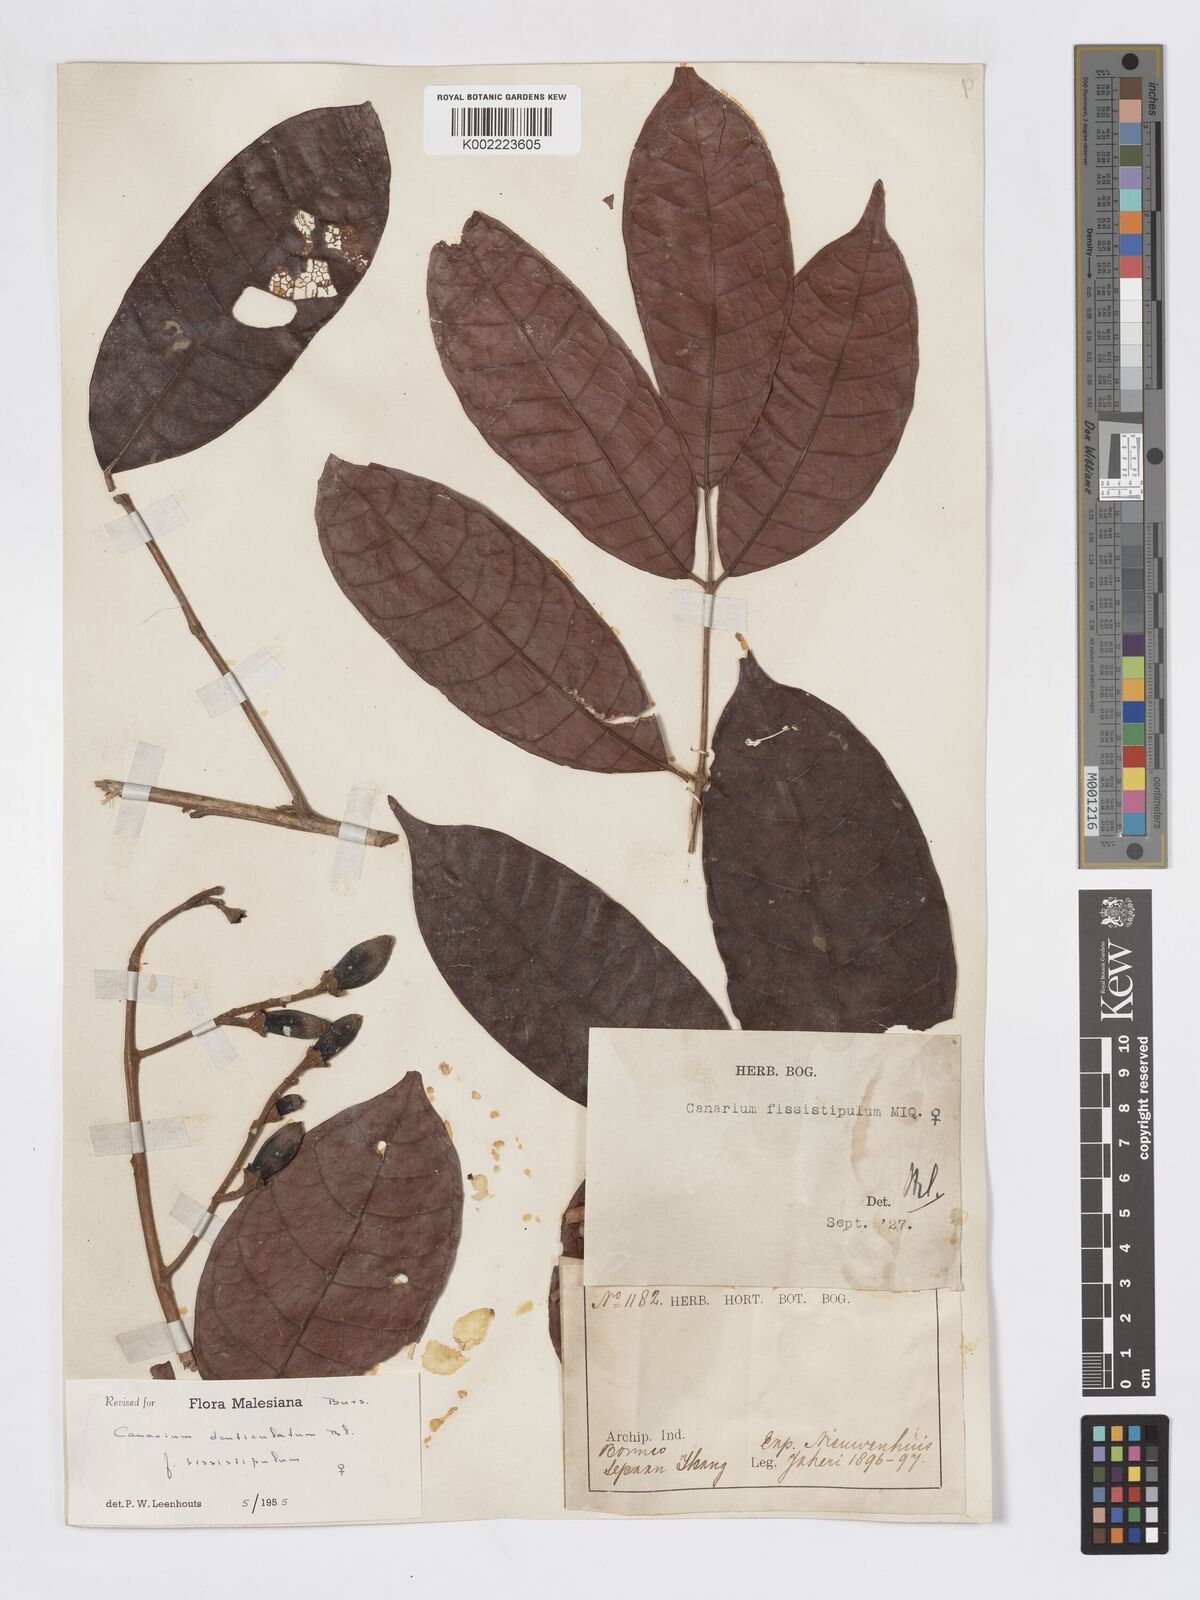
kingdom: Plantae
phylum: Tracheophyta
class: Magnoliopsida
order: Sapindales
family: Burseraceae
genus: Canarium
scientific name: Canarium denticulatum
